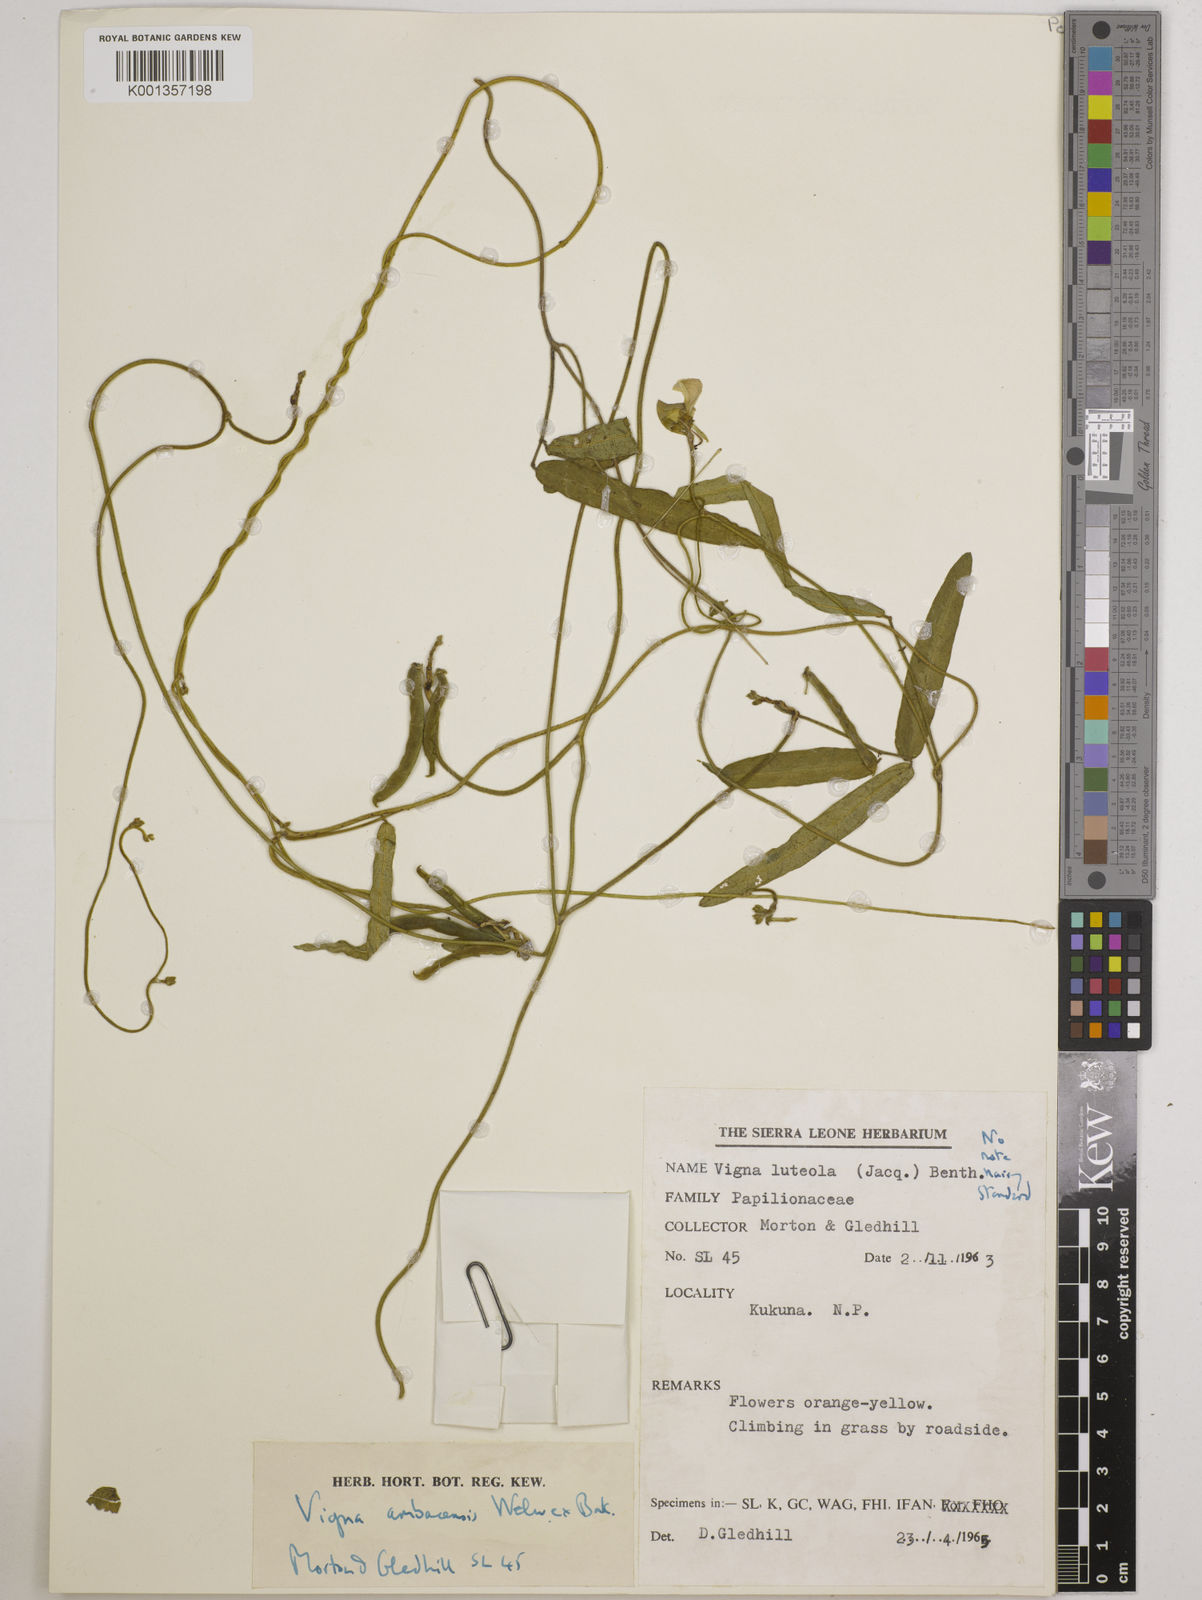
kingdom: Plantae
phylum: Tracheophyta
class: Magnoliopsida
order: Fabales
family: Fabaceae
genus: Vigna
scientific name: Vigna ambacensis
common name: Tsarkiyan zomo
